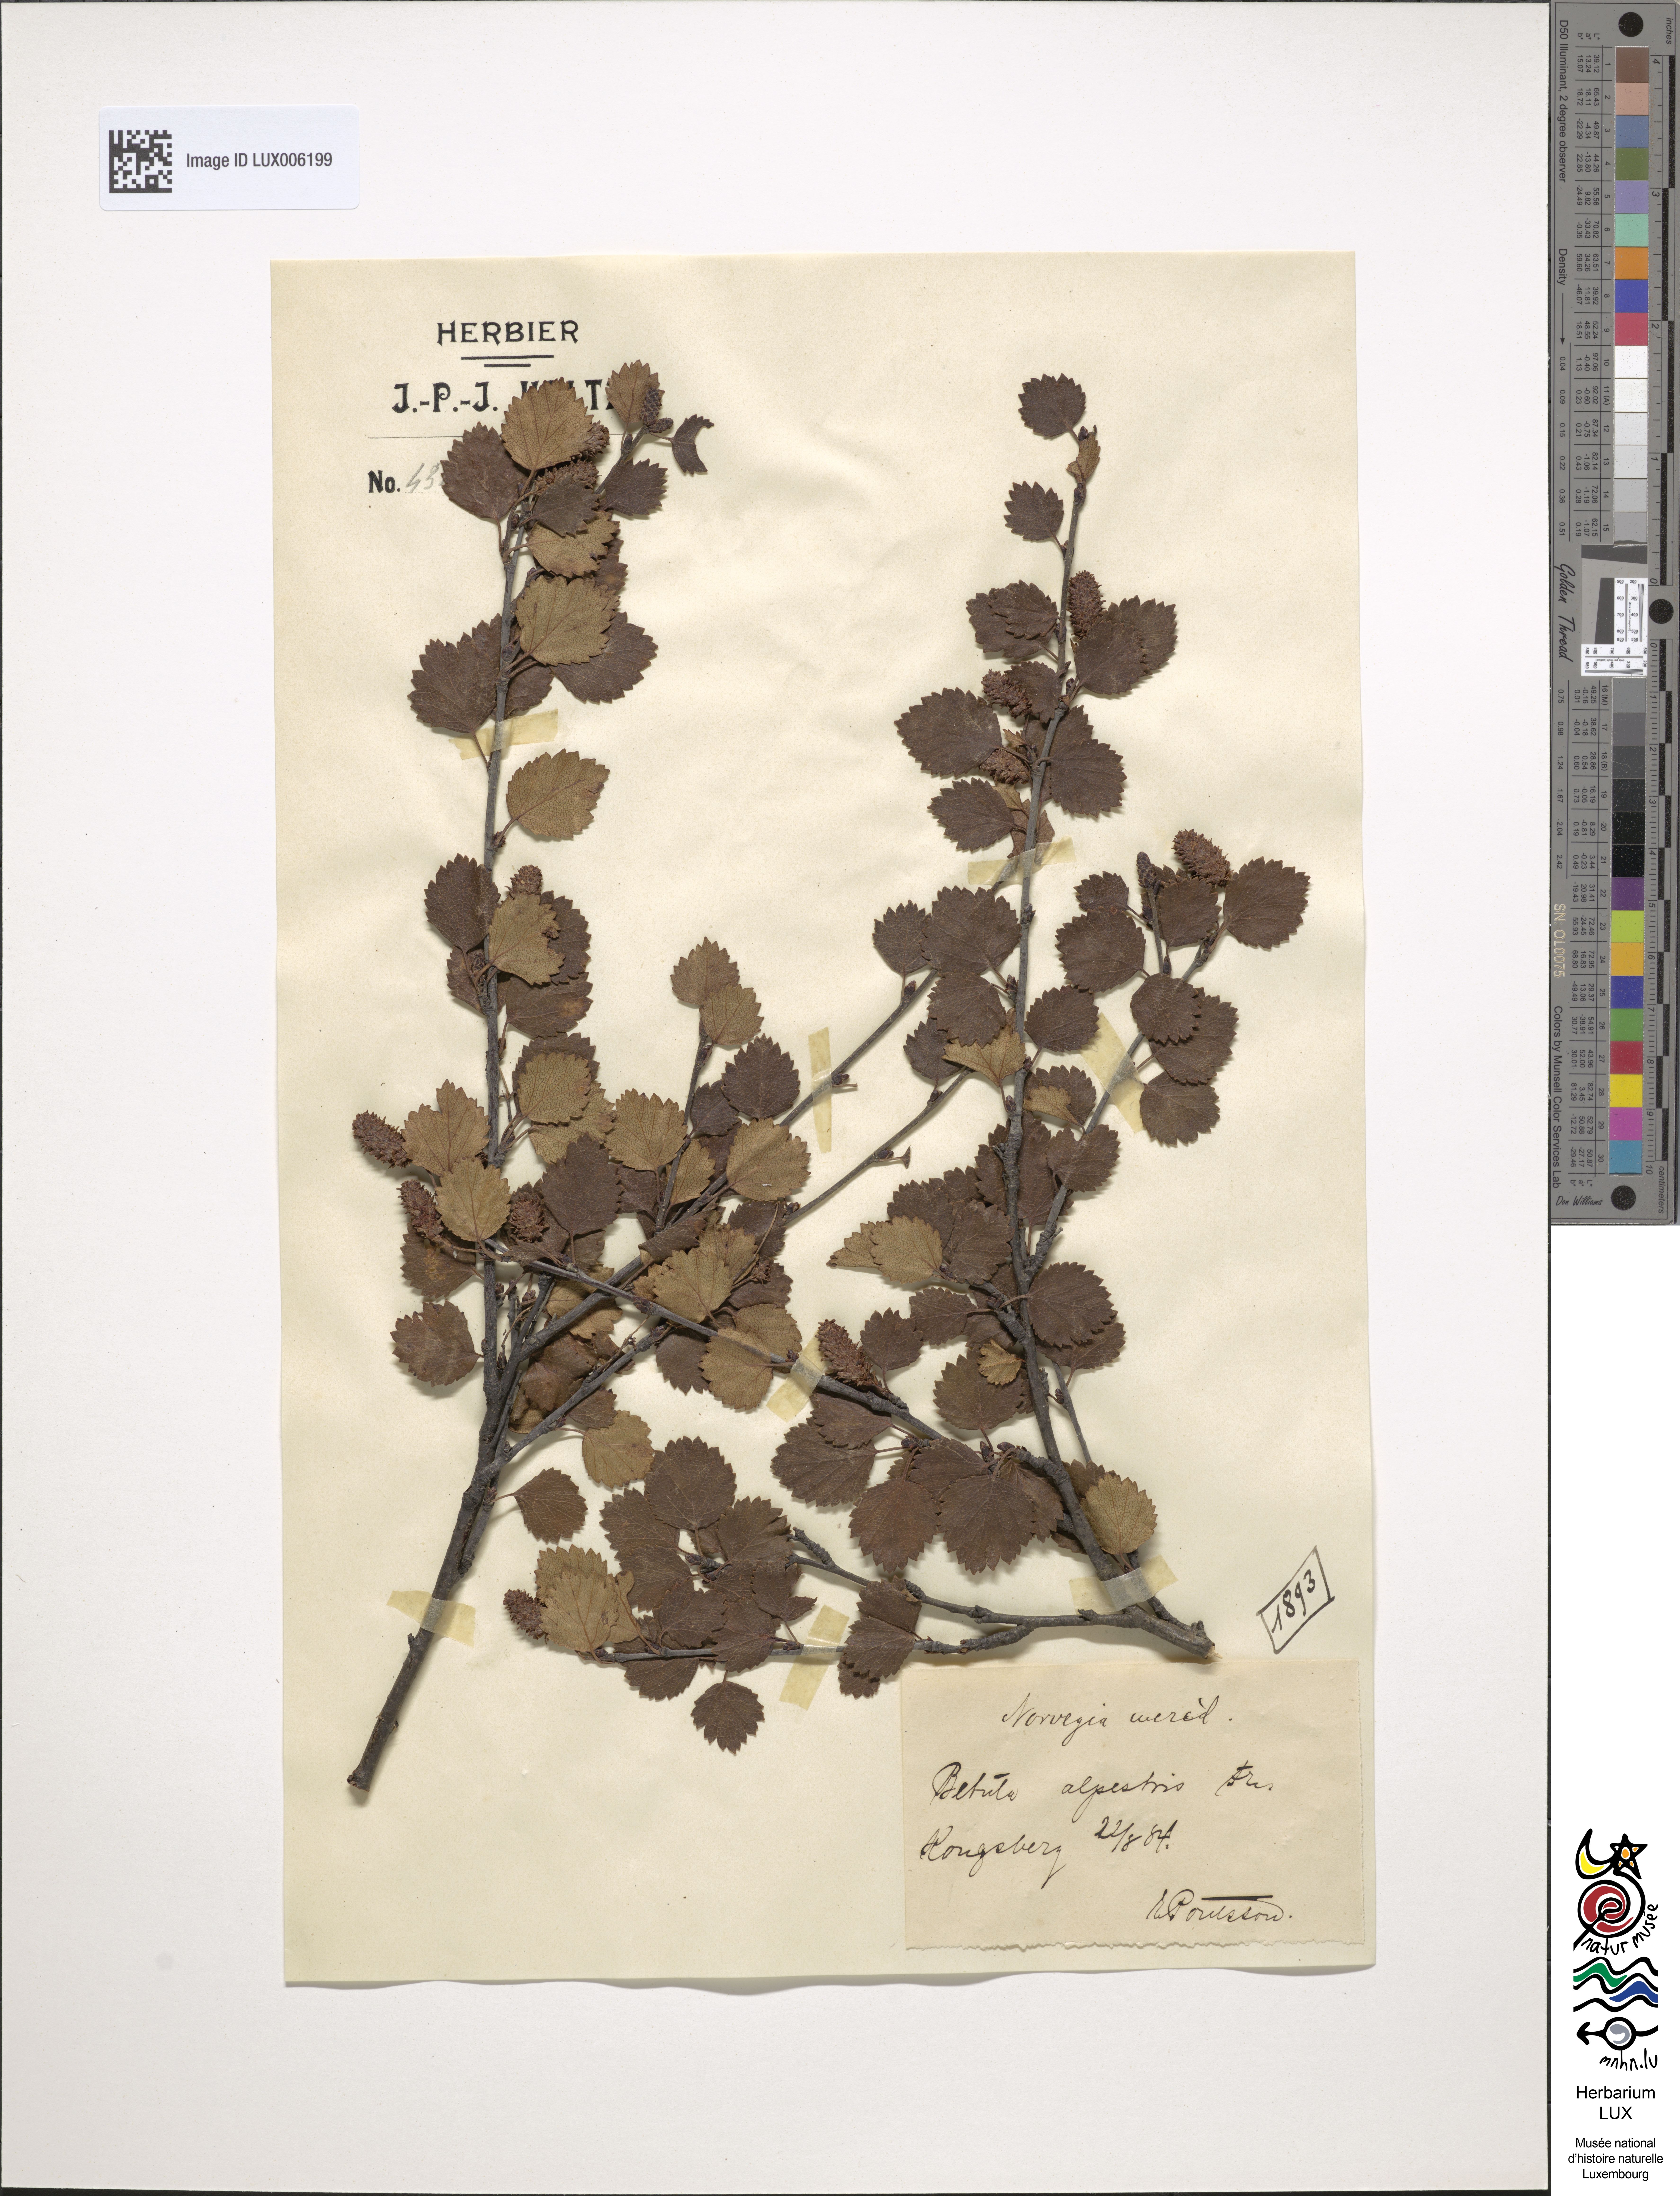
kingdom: Plantae
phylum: Tracheophyta
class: Magnoliopsida
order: Fagales
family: Betulaceae
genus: Alnus
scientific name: Alnus alnobetula
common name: Green alder
